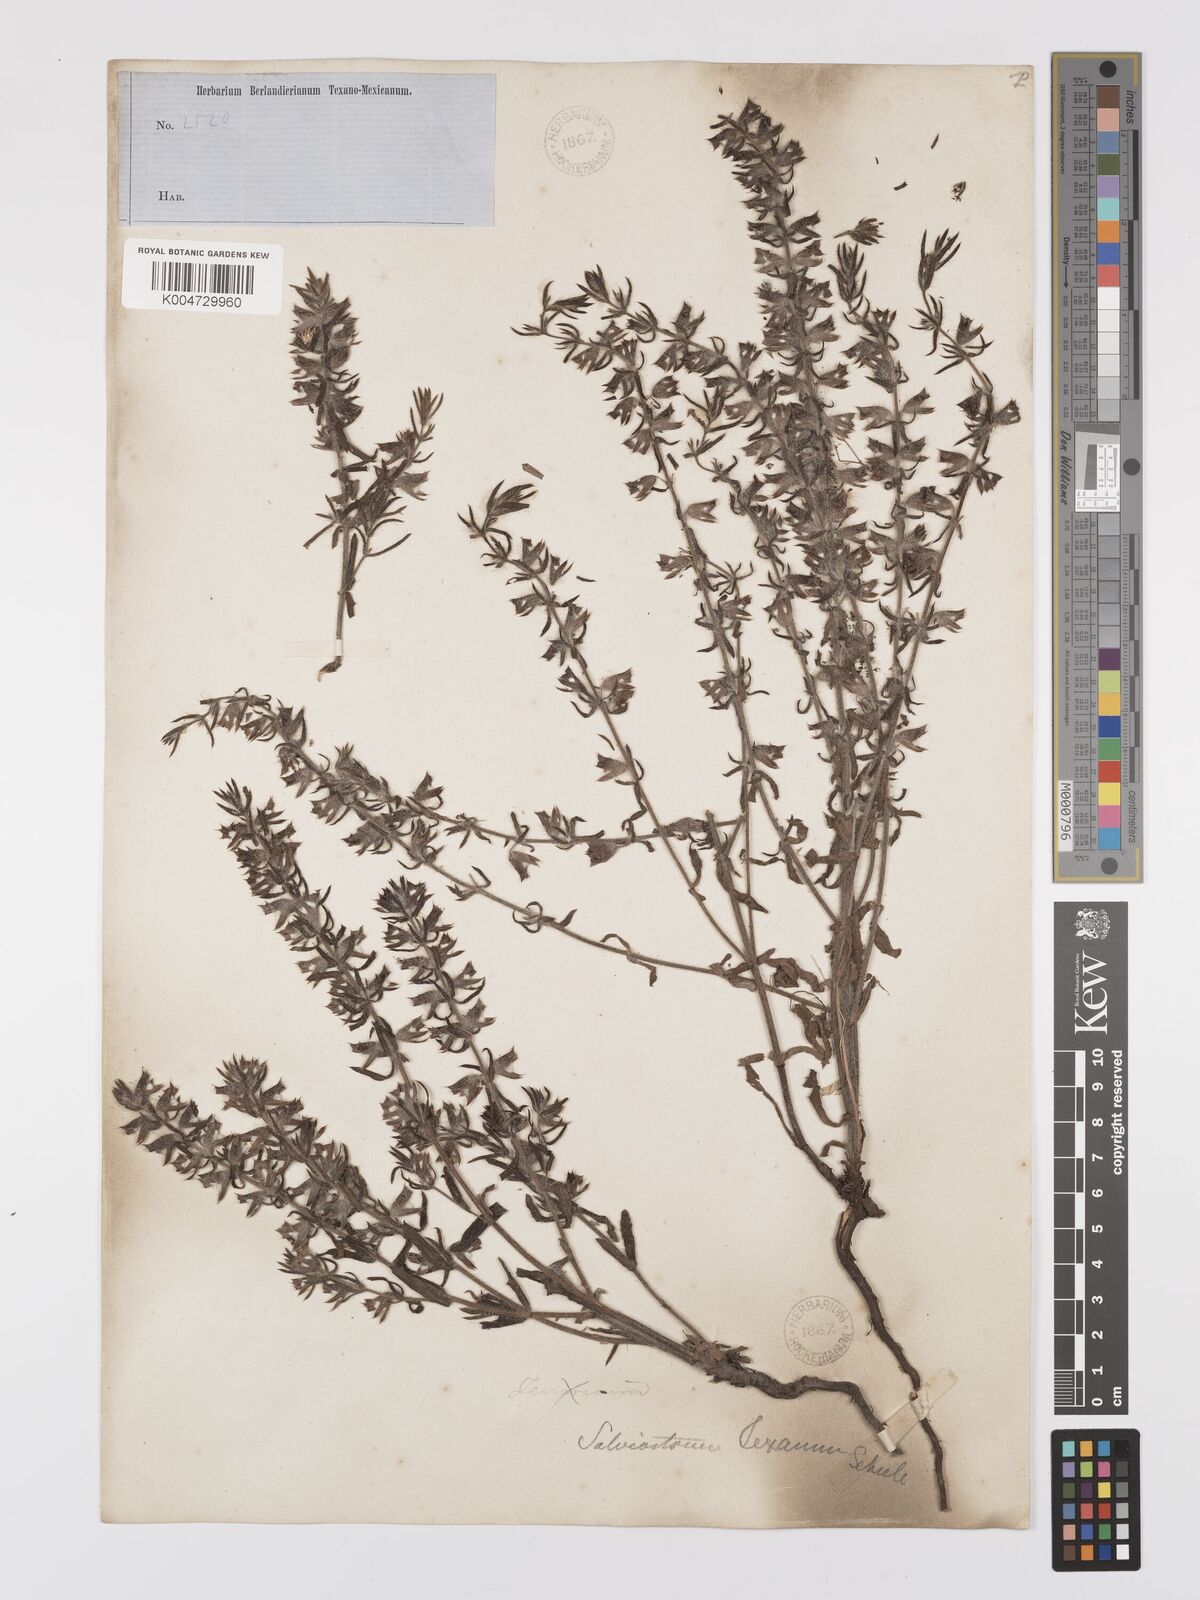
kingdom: Plantae
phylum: Tracheophyta
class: Magnoliopsida
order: Lamiales
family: Lamiaceae
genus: Salvia
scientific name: Salvia texana
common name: Texas sage
